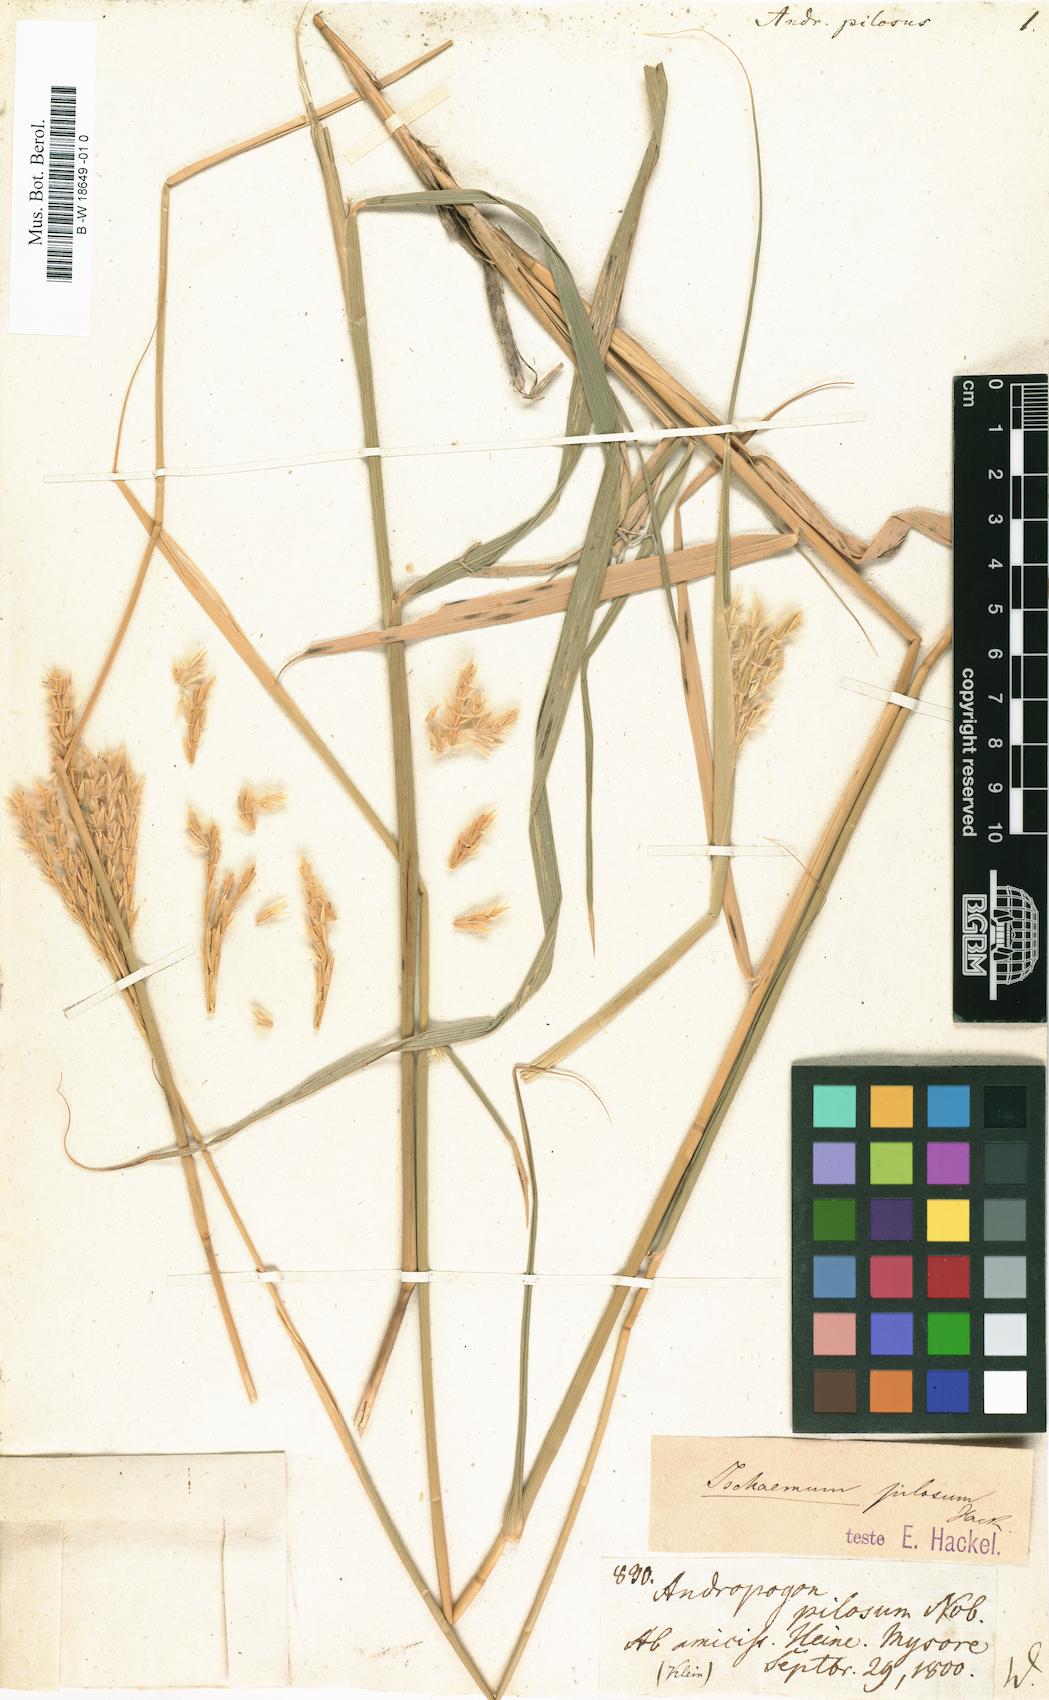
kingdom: Plantae
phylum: Tracheophyta
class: Liliopsida
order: Poales
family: Poaceae
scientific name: Poaceae
